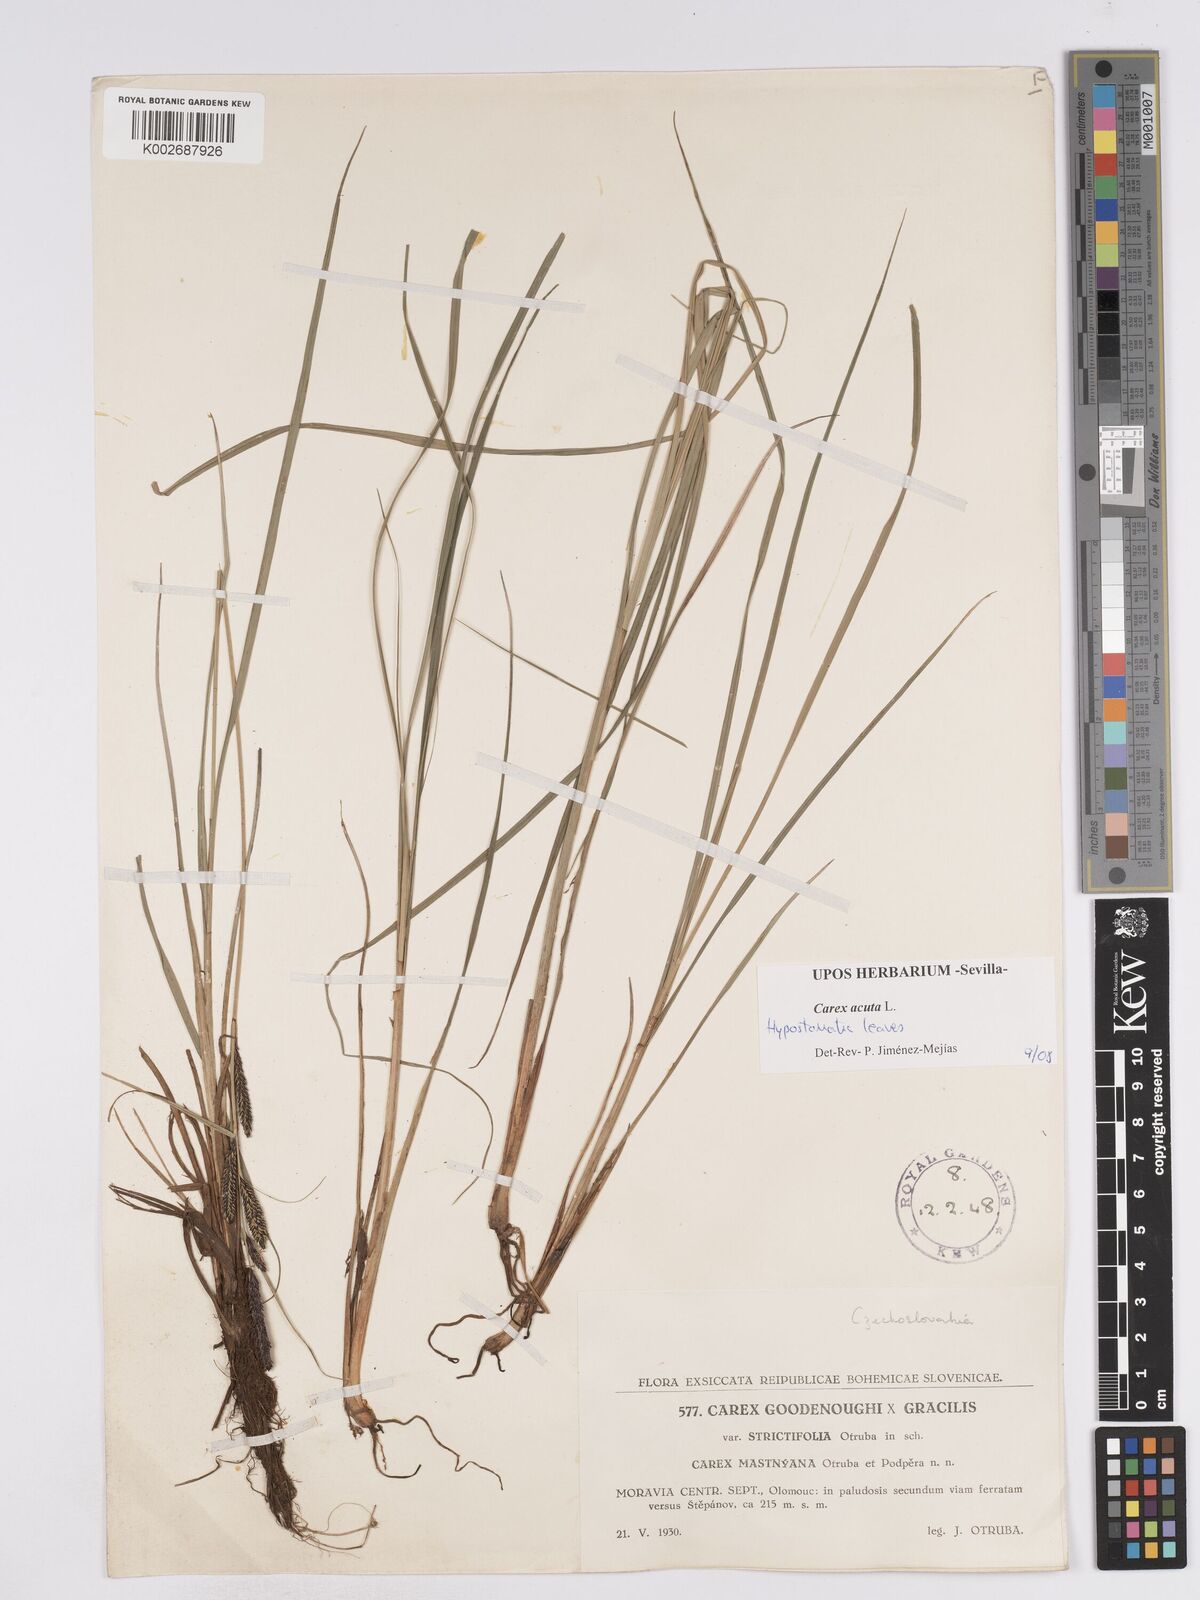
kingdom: Plantae
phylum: Tracheophyta
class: Liliopsida
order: Poales
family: Cyperaceae
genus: Carex
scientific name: Carex acuta
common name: Slender tufted-sedge
